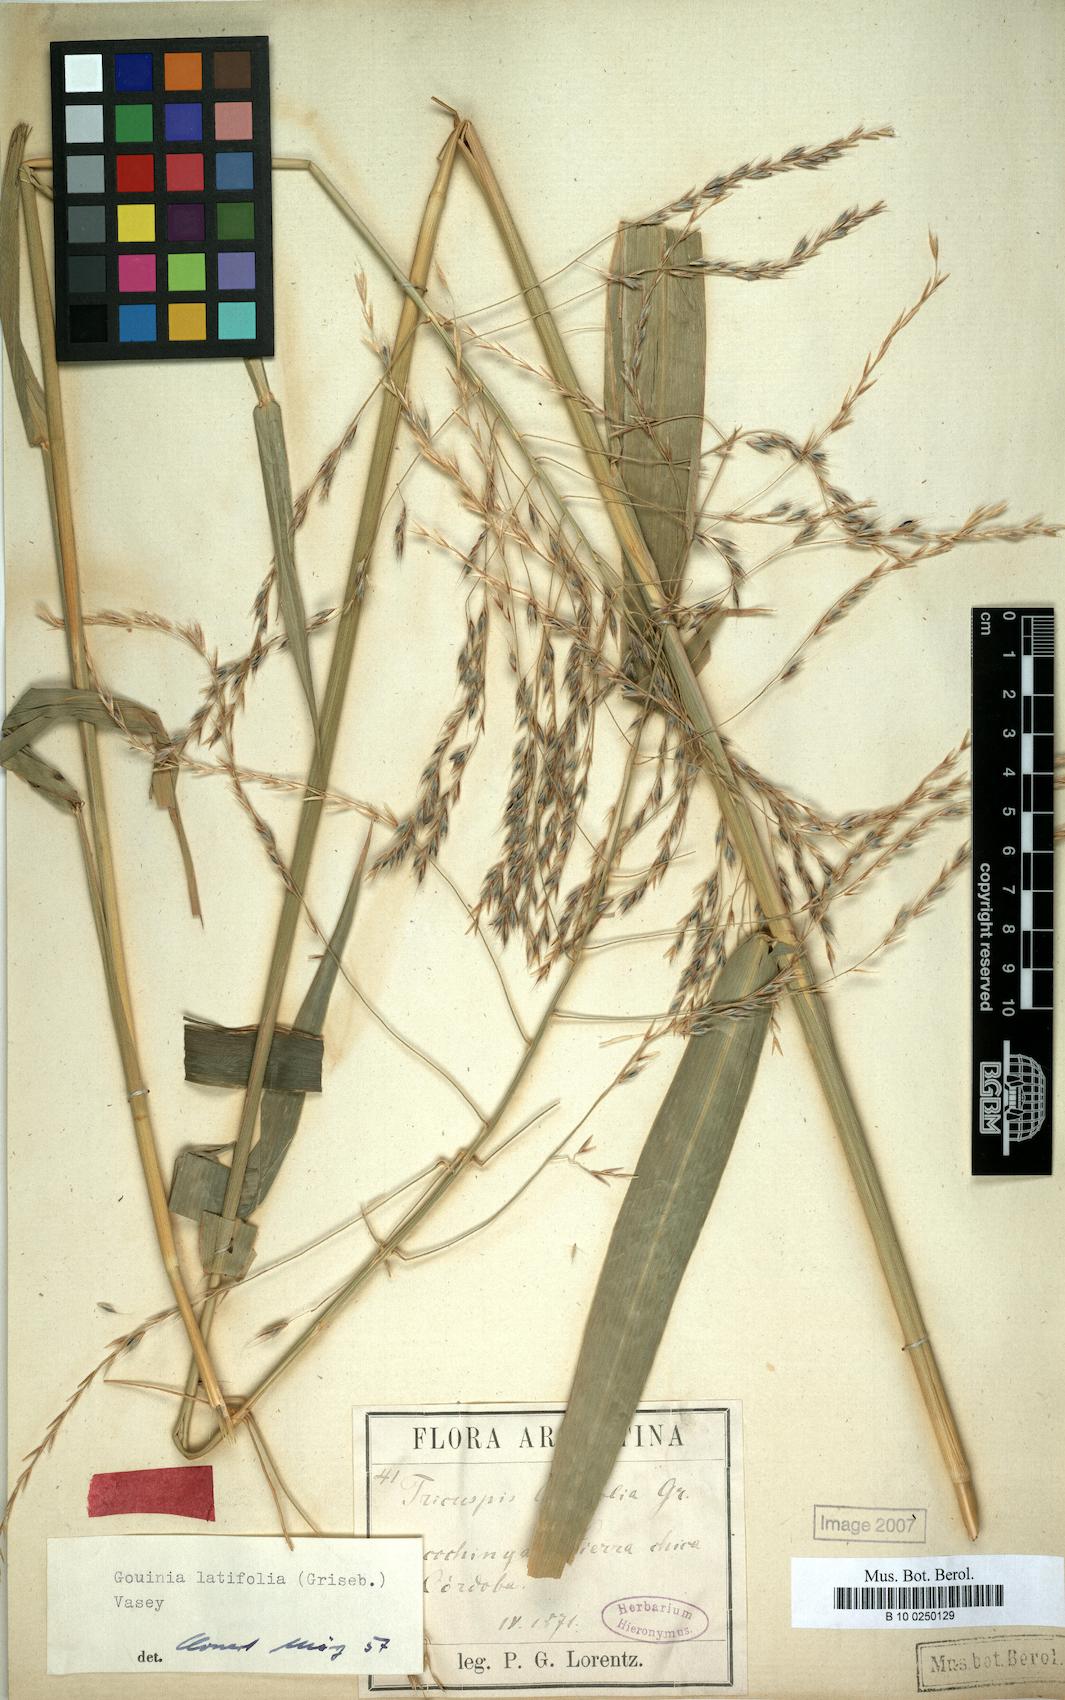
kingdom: Plantae
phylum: Tracheophyta
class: Liliopsida
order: Poales
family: Poaceae
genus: Gouinia
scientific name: Gouinia latifolia
